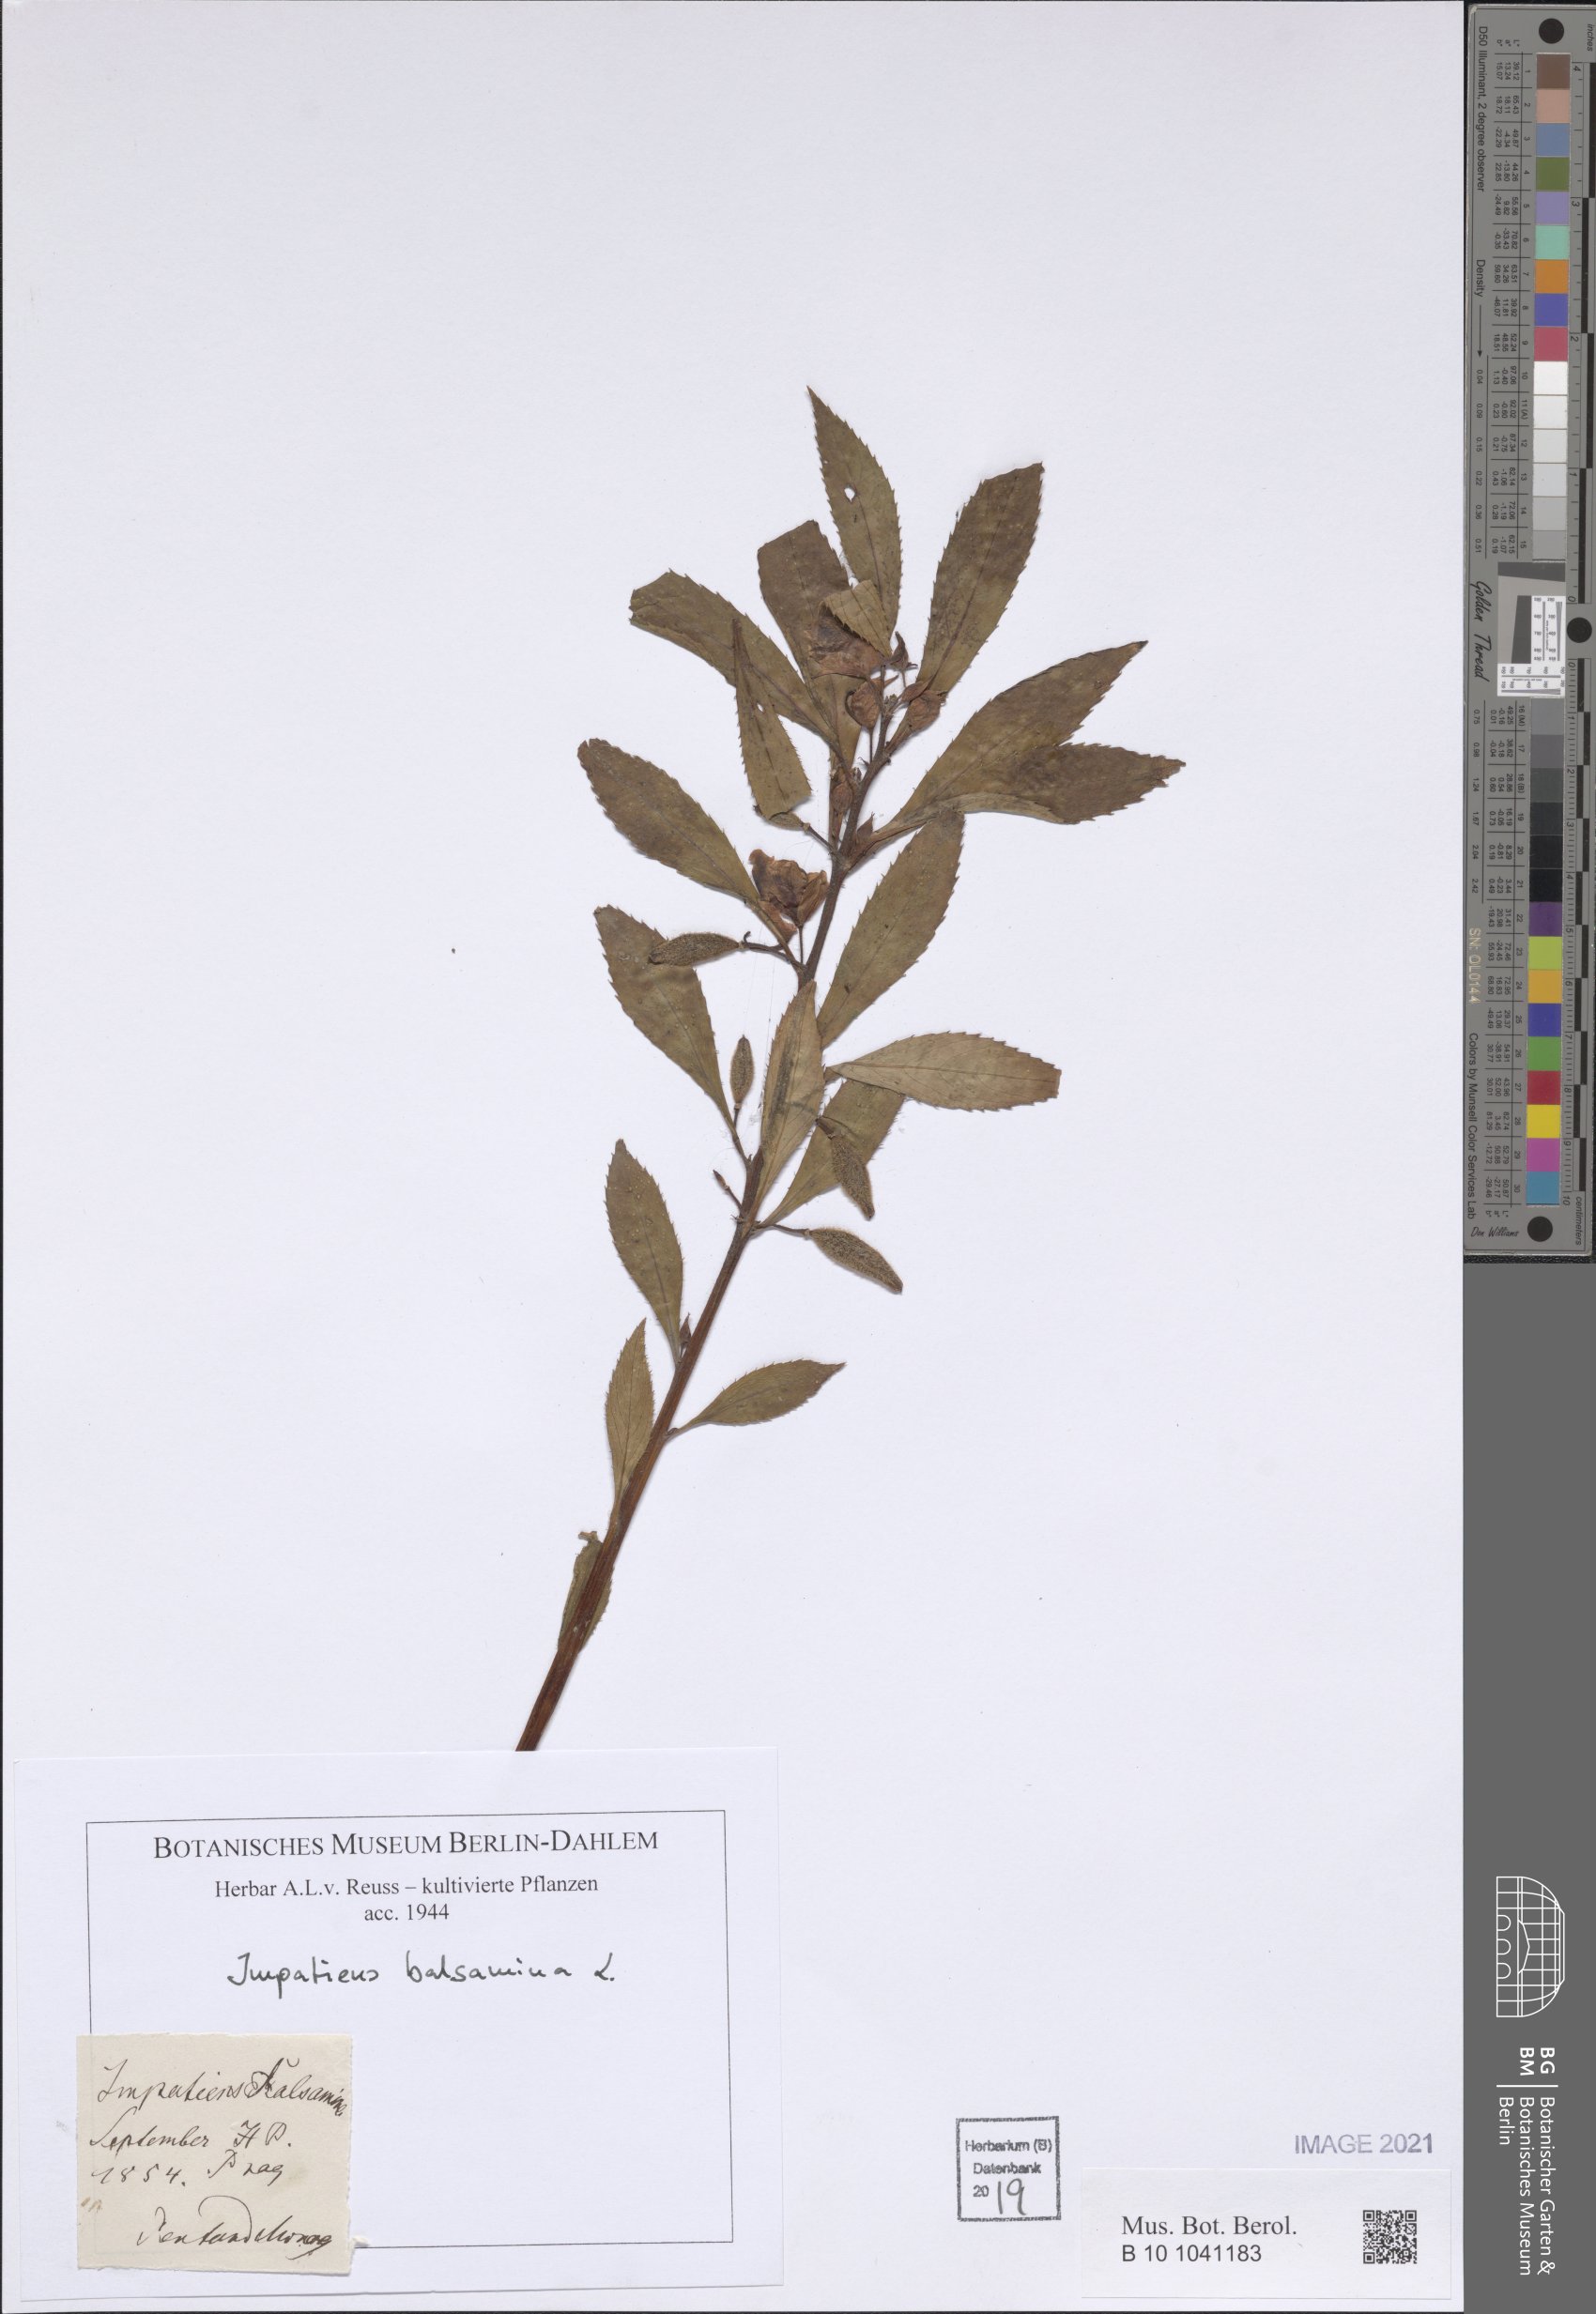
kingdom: Plantae
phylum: Tracheophyta
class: Magnoliopsida
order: Ericales
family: Balsaminaceae
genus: Impatiens
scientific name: Impatiens balsamina
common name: Balsam
